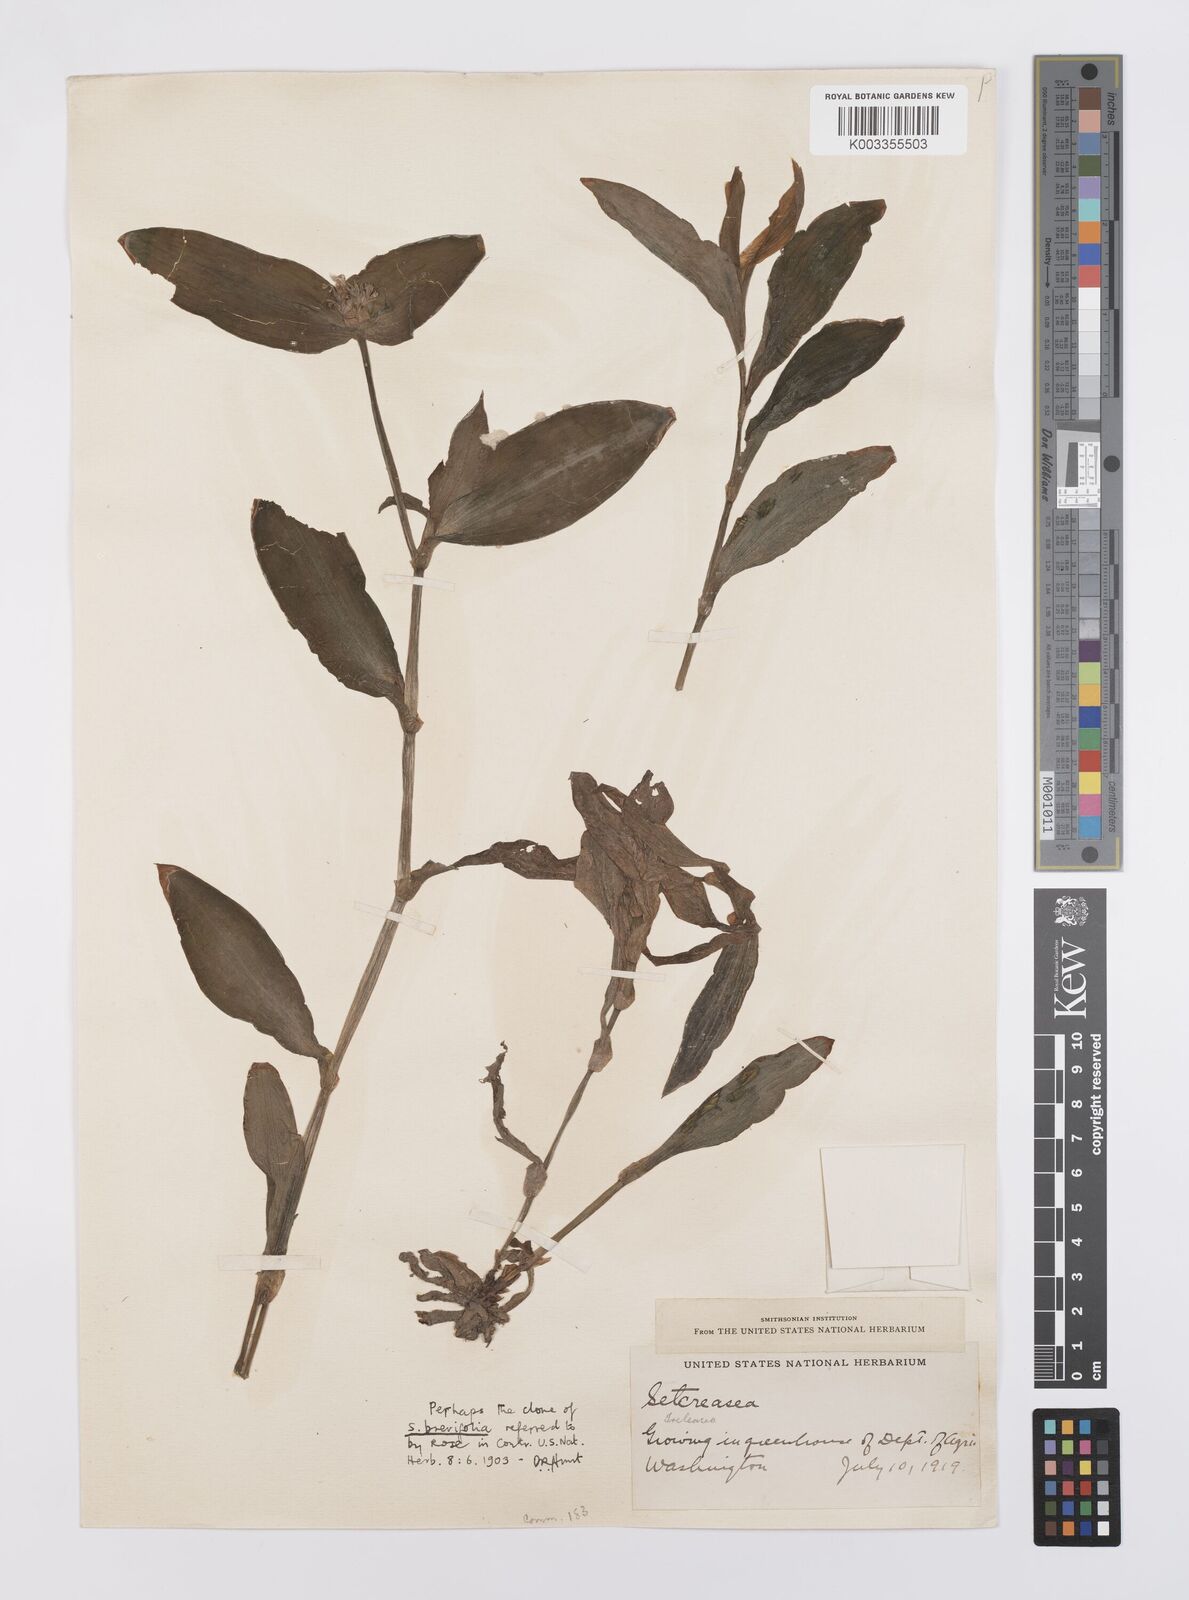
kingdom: Plantae
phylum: Tracheophyta
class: Liliopsida
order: Commelinales
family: Commelinaceae
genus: Tradescantia
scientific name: Tradescantia brevifolia
